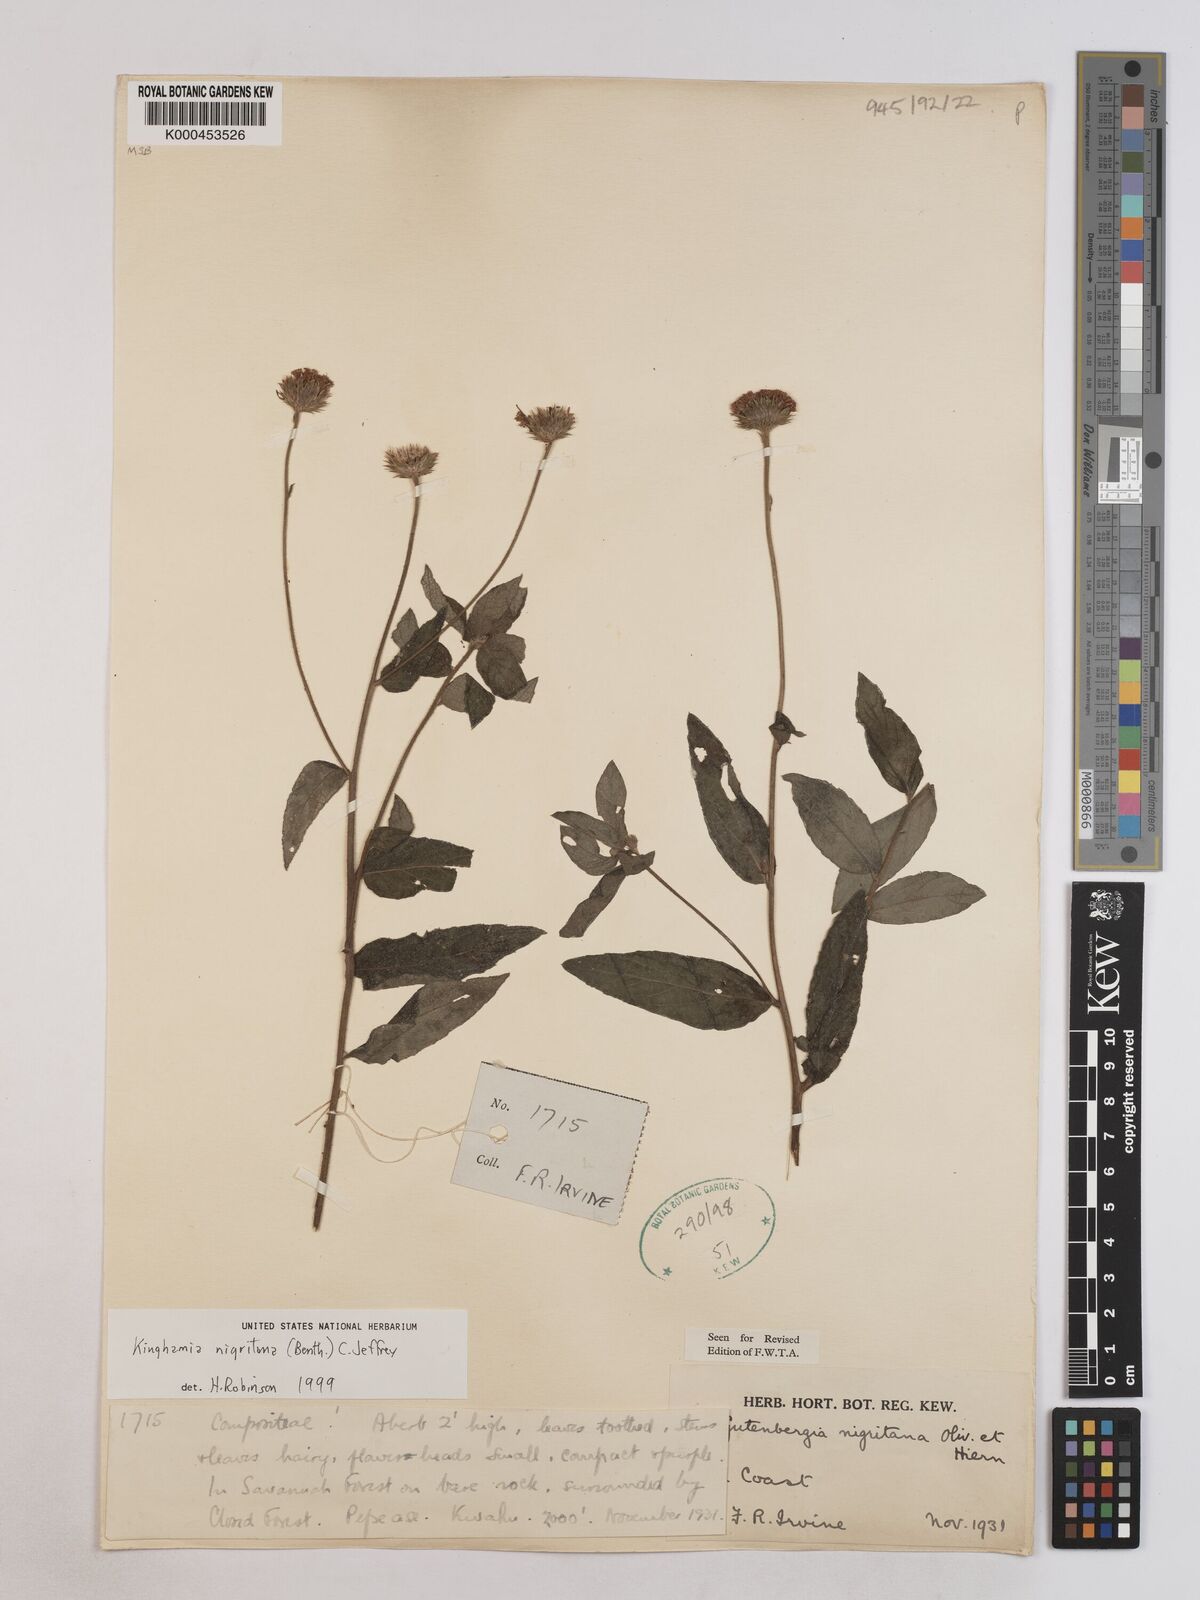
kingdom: Plantae
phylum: Tracheophyta
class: Magnoliopsida
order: Asterales
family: Asteraceae
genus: Kinghamia
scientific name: Kinghamia nigritana
